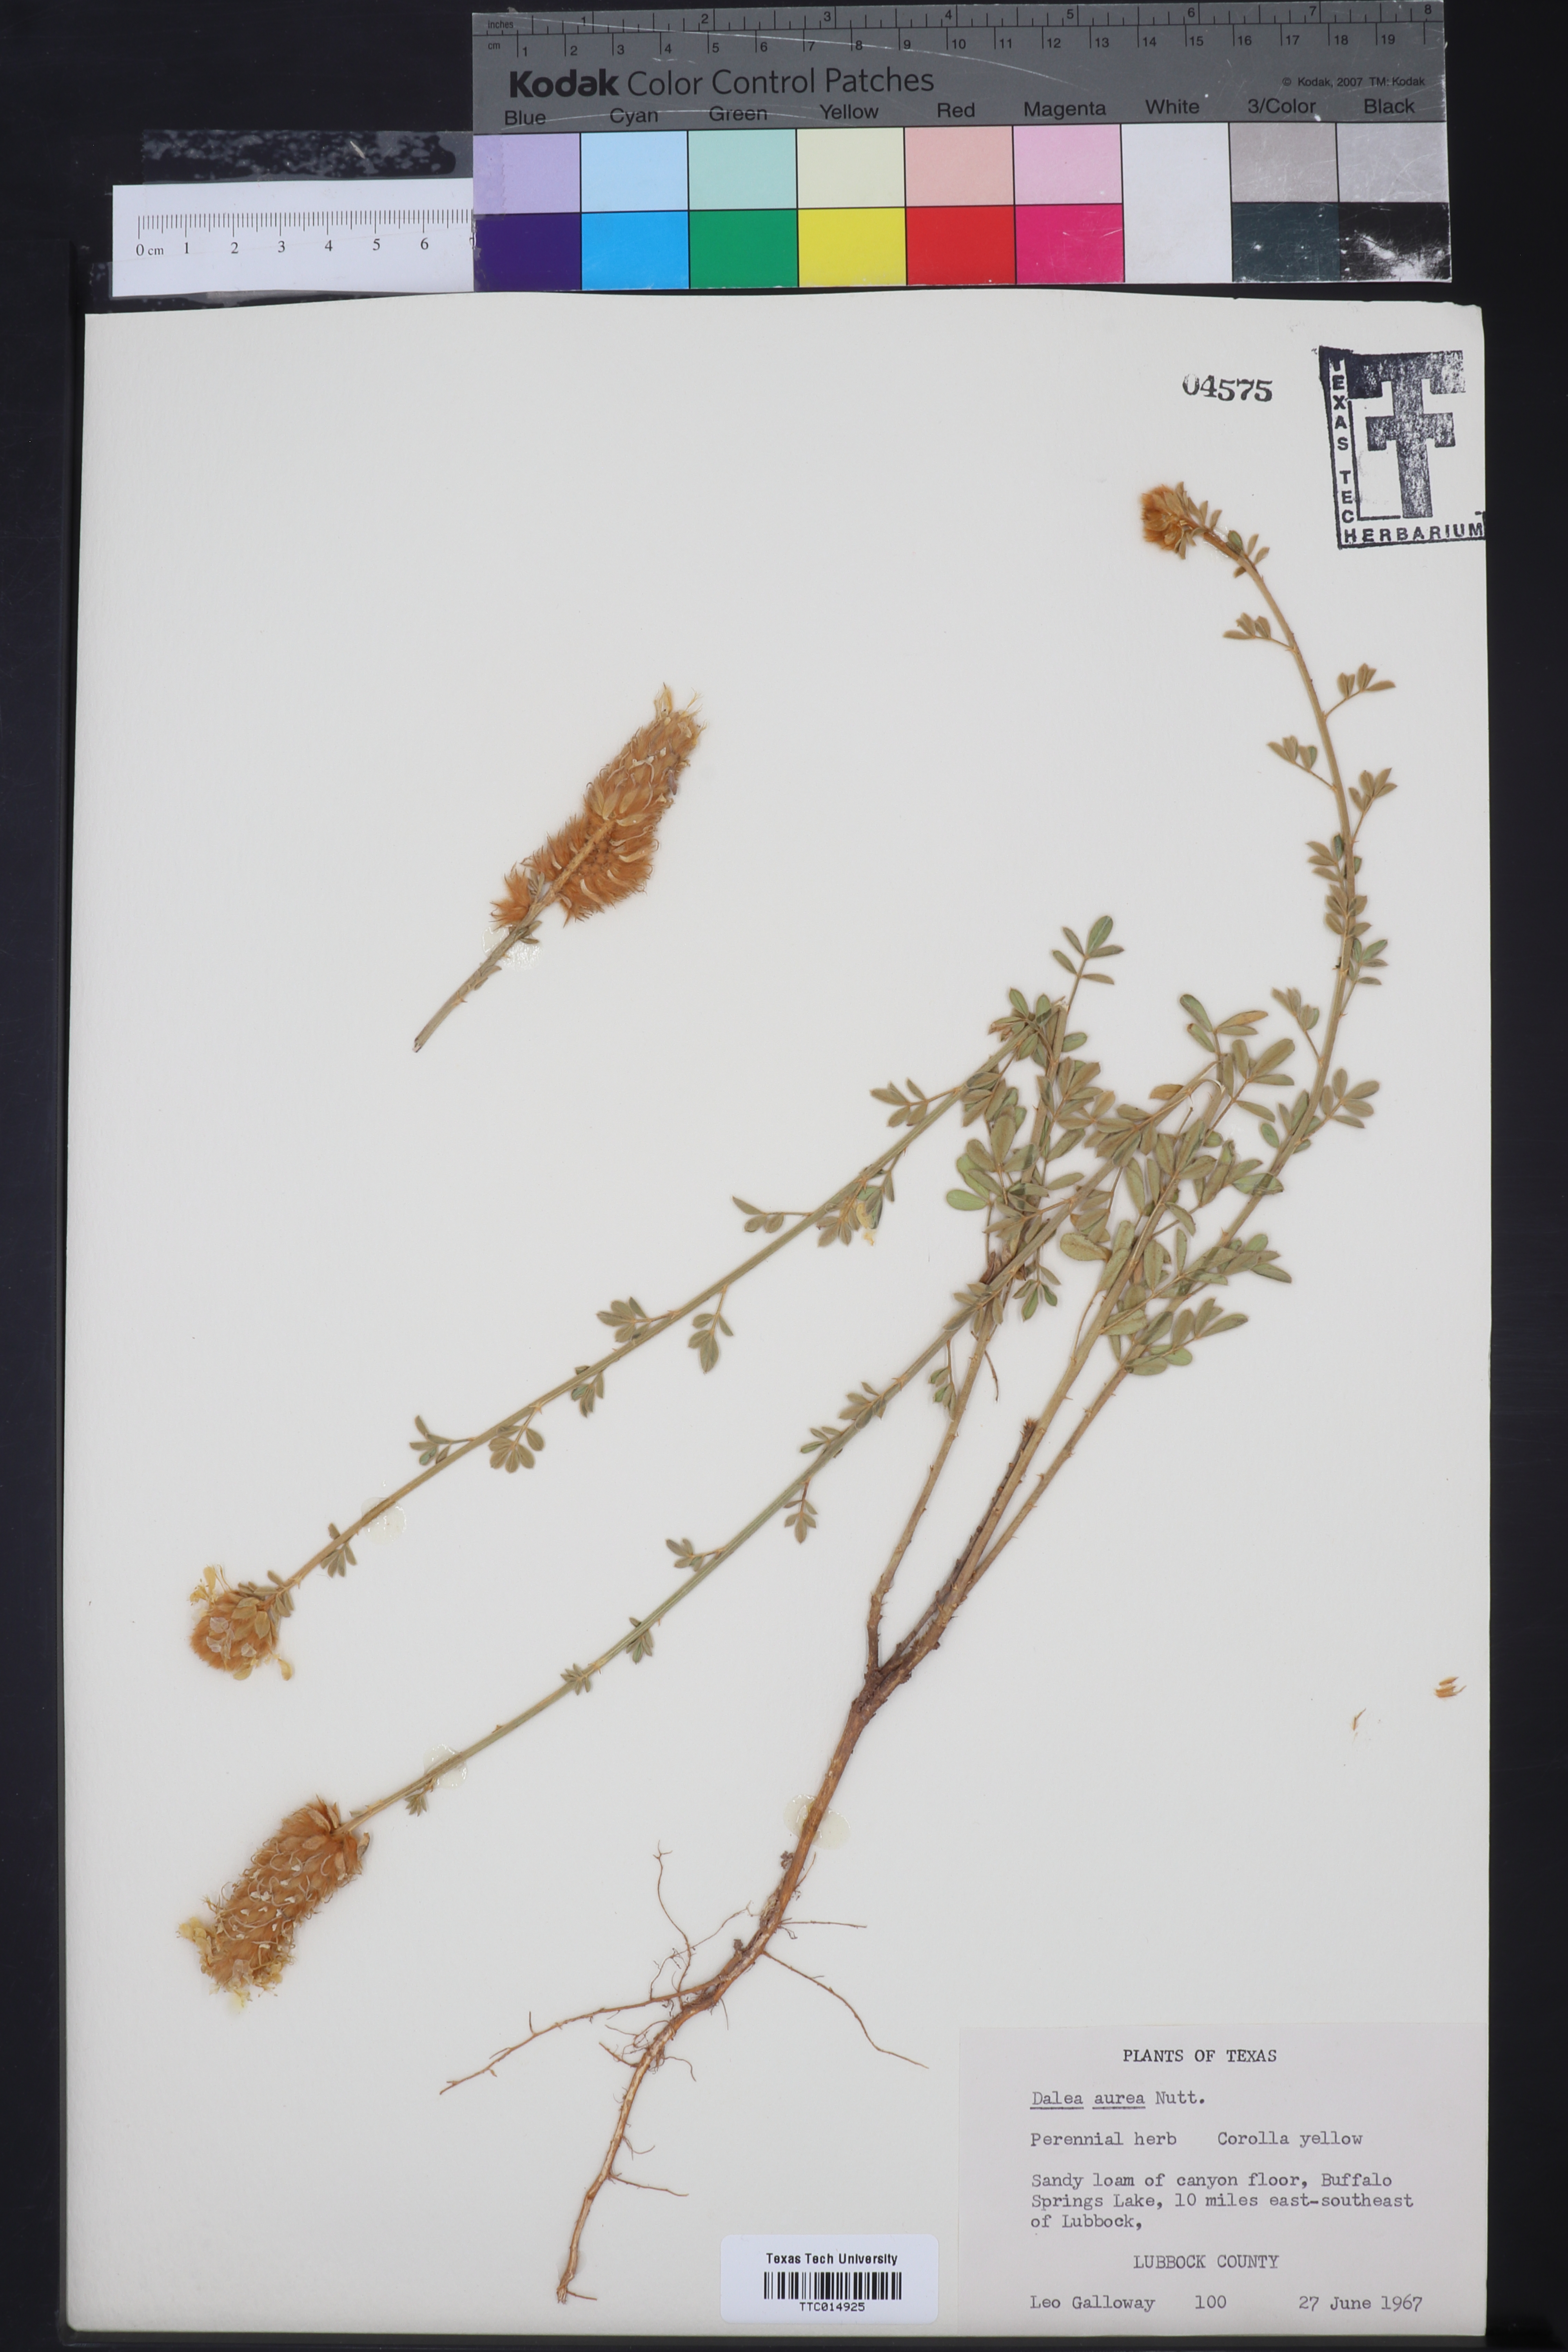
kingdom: Plantae
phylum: Tracheophyta
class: Magnoliopsida
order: Fabales
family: Fabaceae
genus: Dalea
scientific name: Dalea aurea
